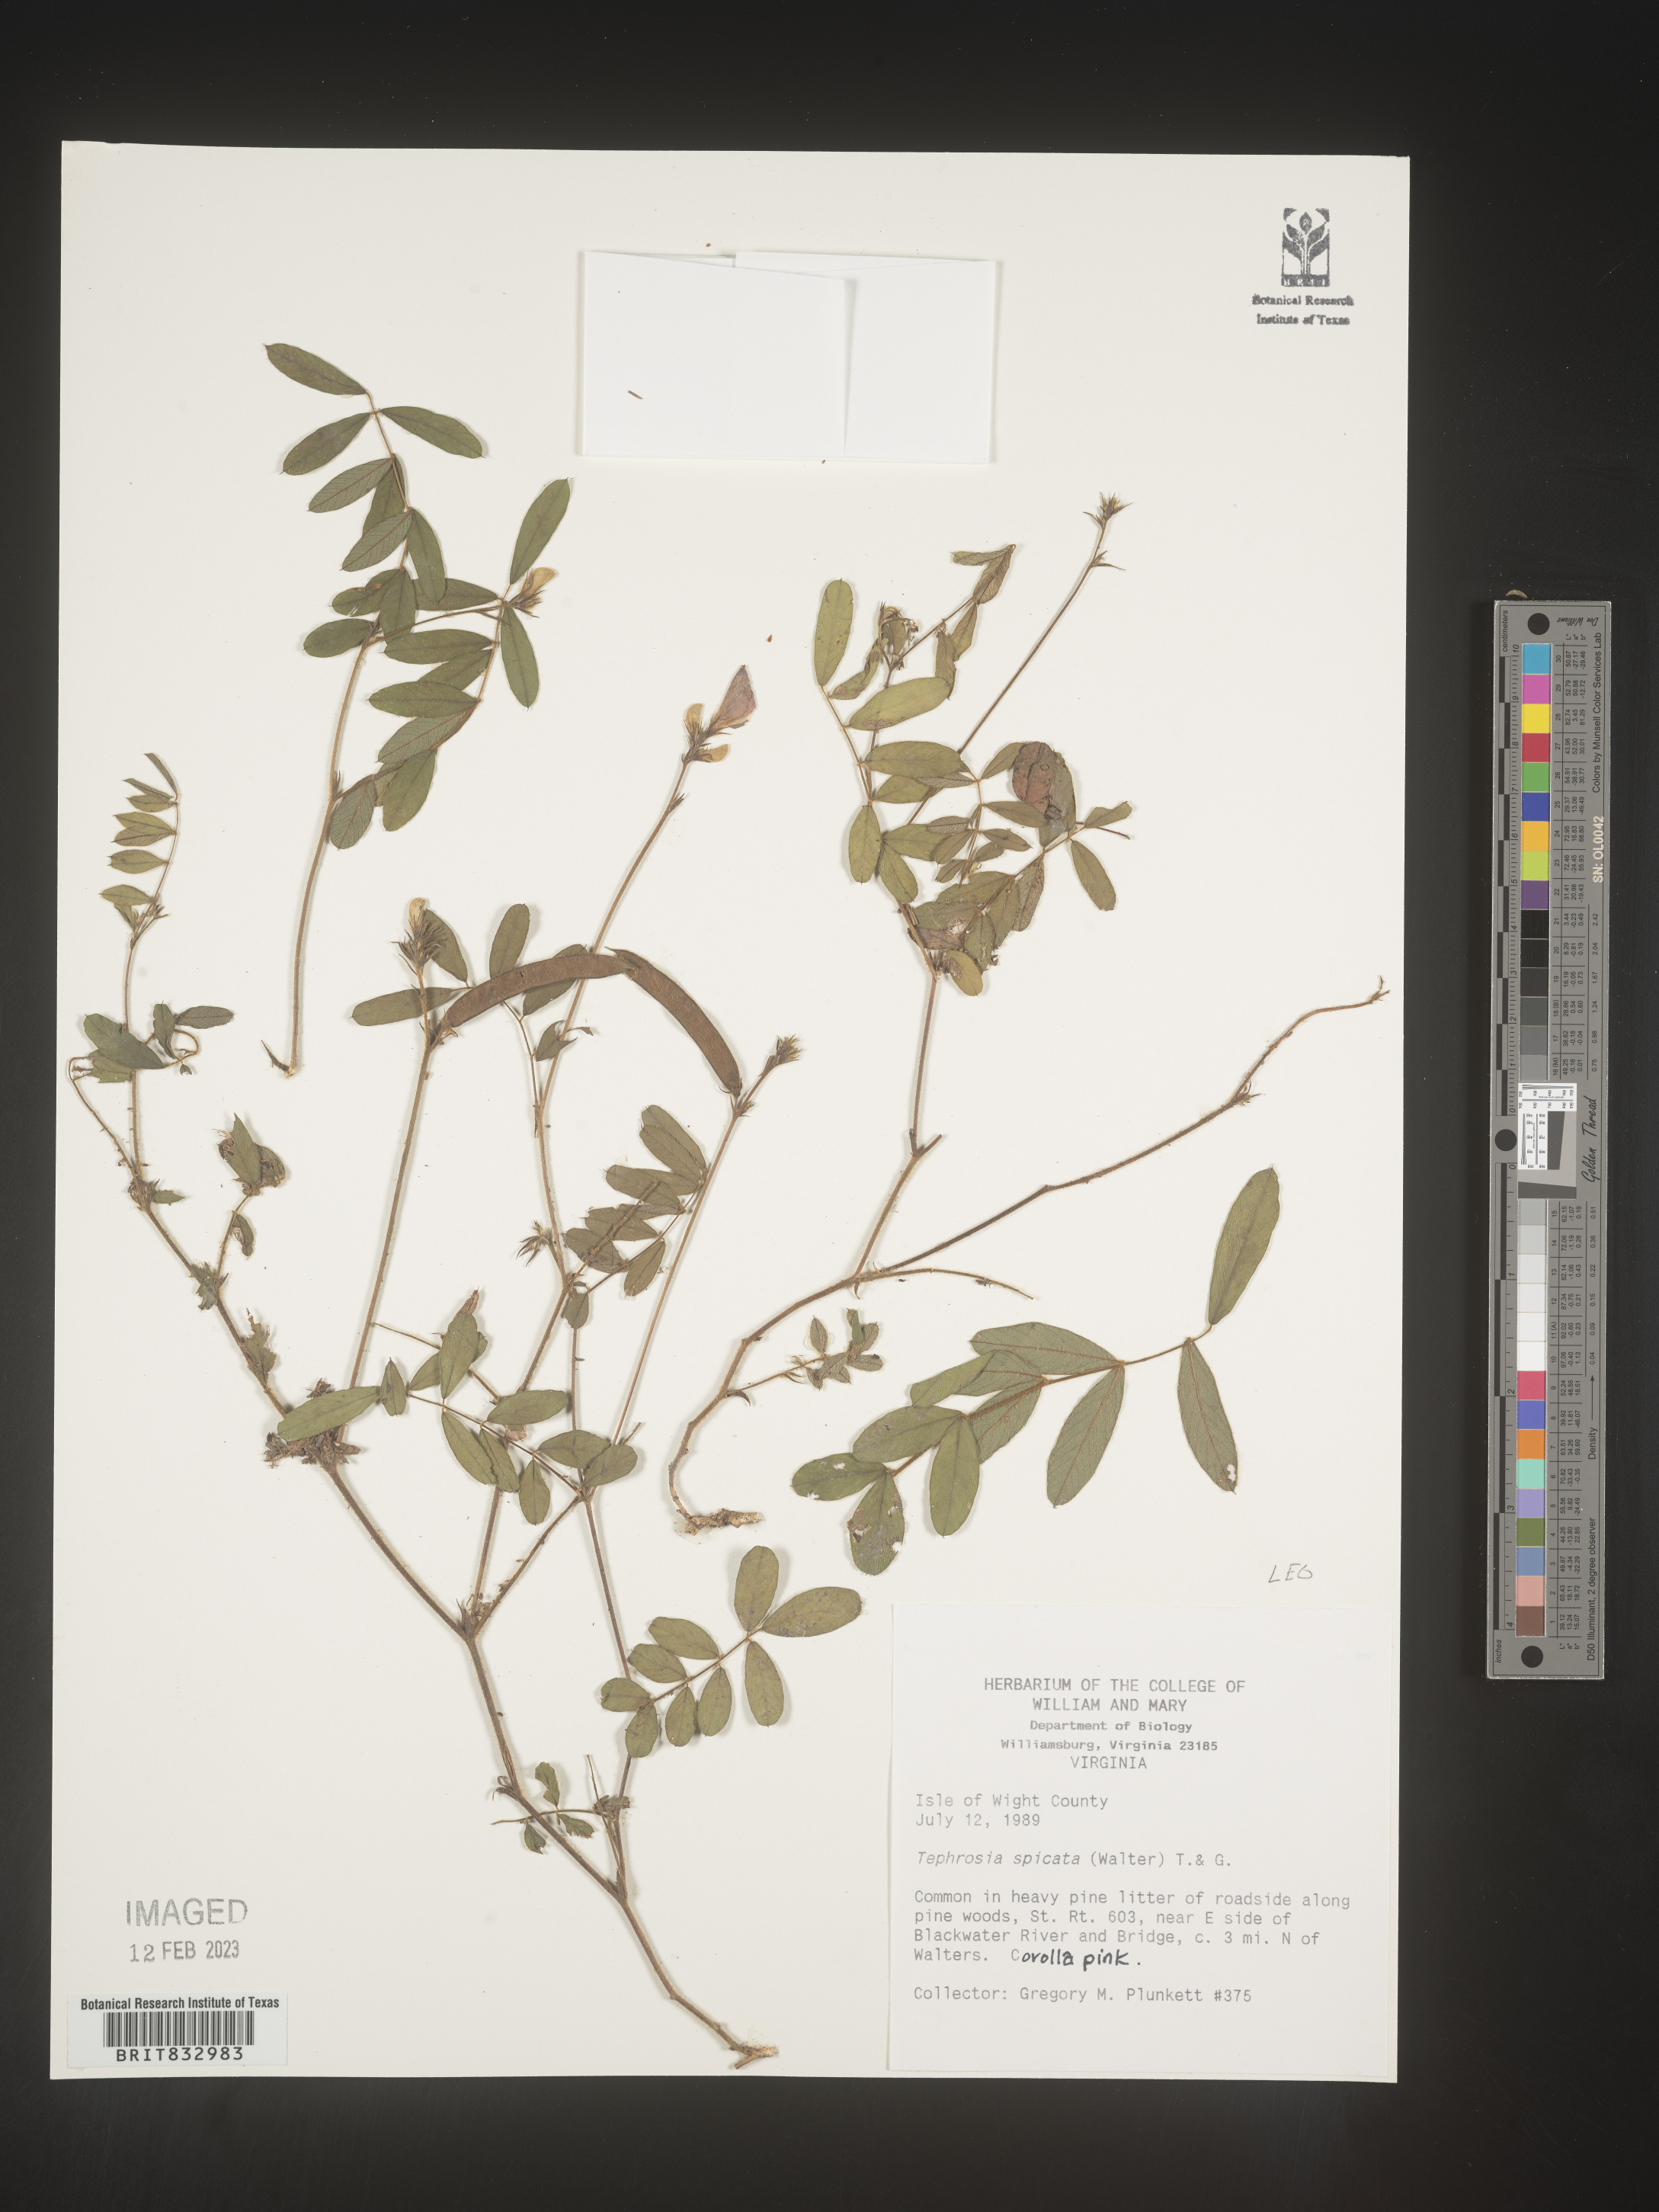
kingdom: Plantae
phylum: Tracheophyta
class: Magnoliopsida
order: Fabales
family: Fabaceae
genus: Tephrosia
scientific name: Tephrosia spicata
